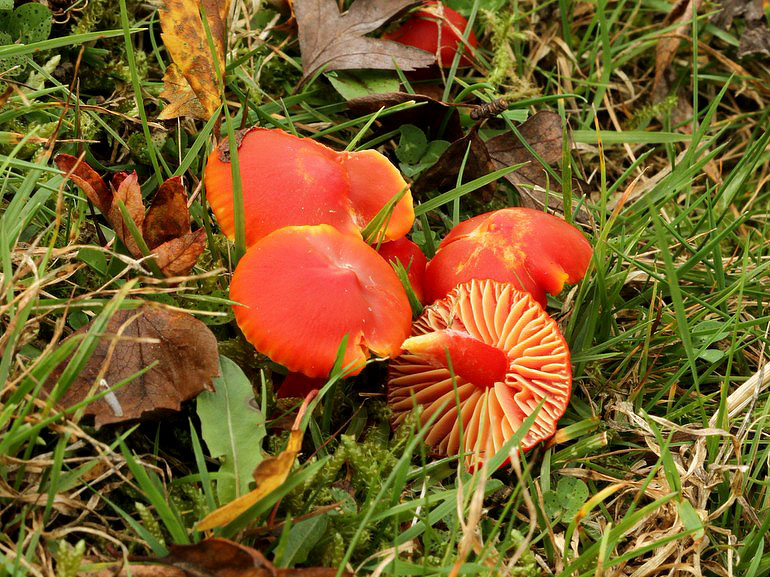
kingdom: Fungi
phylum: Basidiomycota
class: Agaricomycetes
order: Agaricales
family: Hygrophoraceae
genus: Hygrocybe
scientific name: Hygrocybe coccinea
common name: cinnober-vokshat
